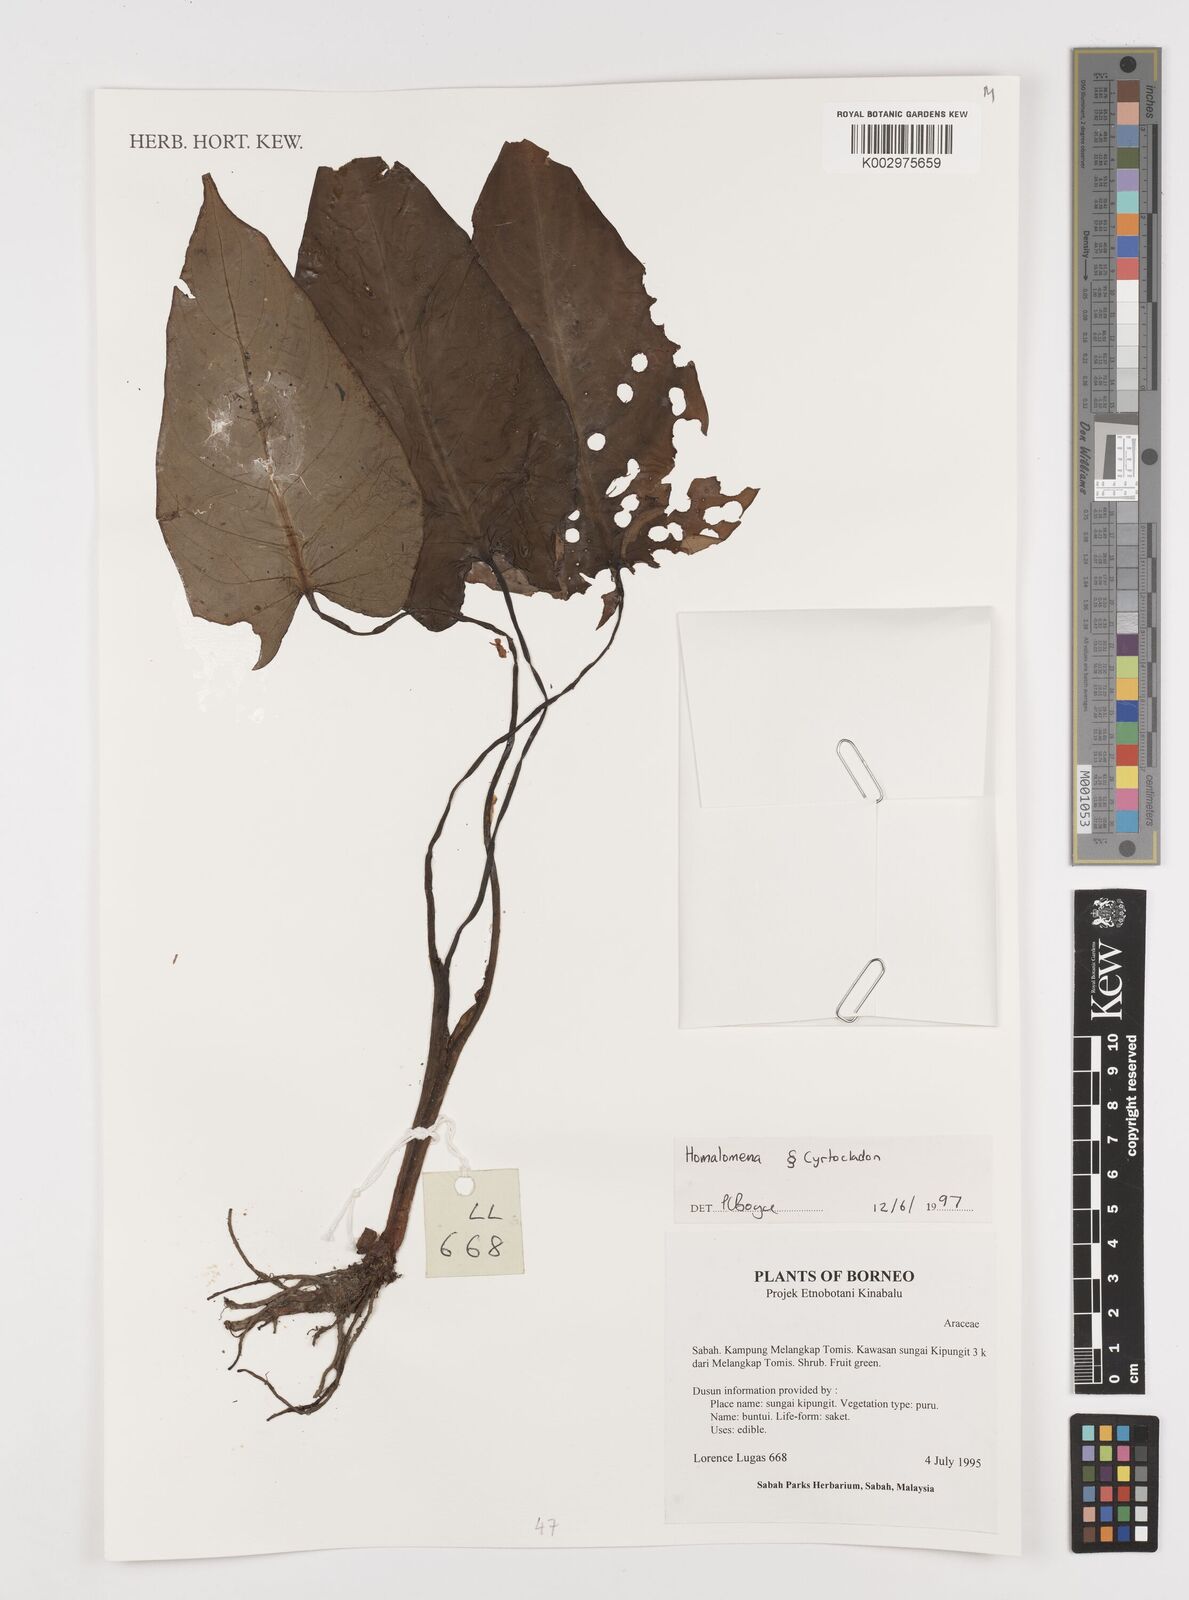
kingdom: Plantae
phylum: Tracheophyta
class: Liliopsida
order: Alismatales
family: Araceae
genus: Homalomena
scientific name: Homalomena
